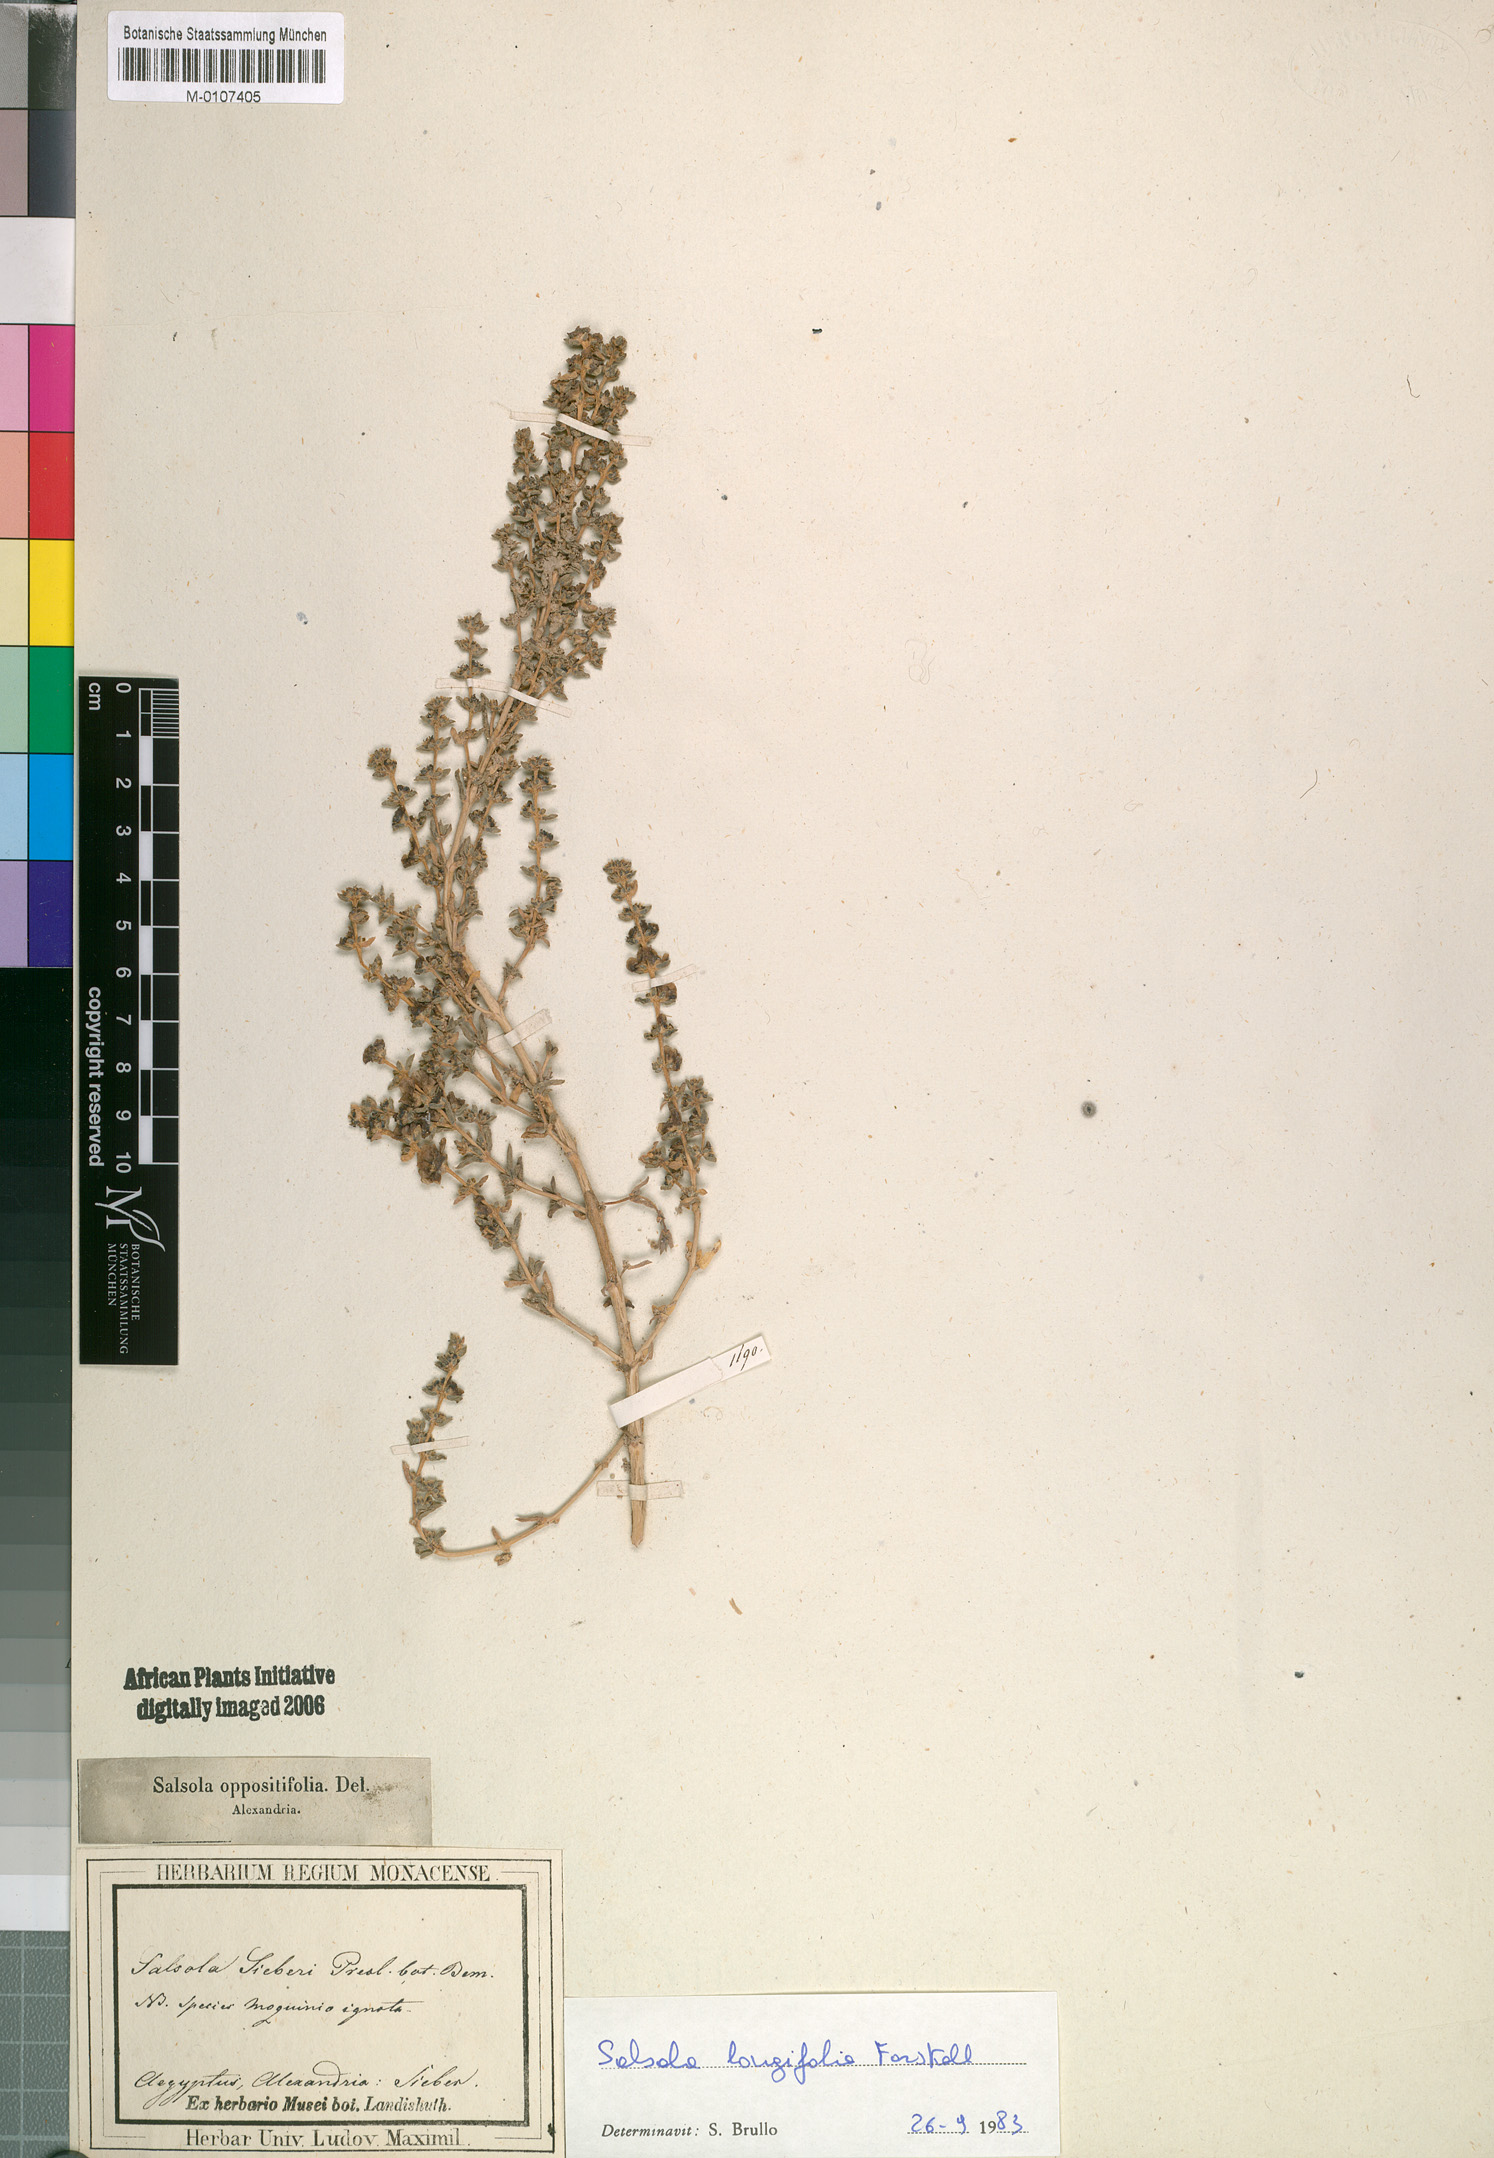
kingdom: Plantae
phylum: Tracheophyta
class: Magnoliopsida
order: Caryophyllales
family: Amaranthaceae
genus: Soda
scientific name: Soda longifolia
